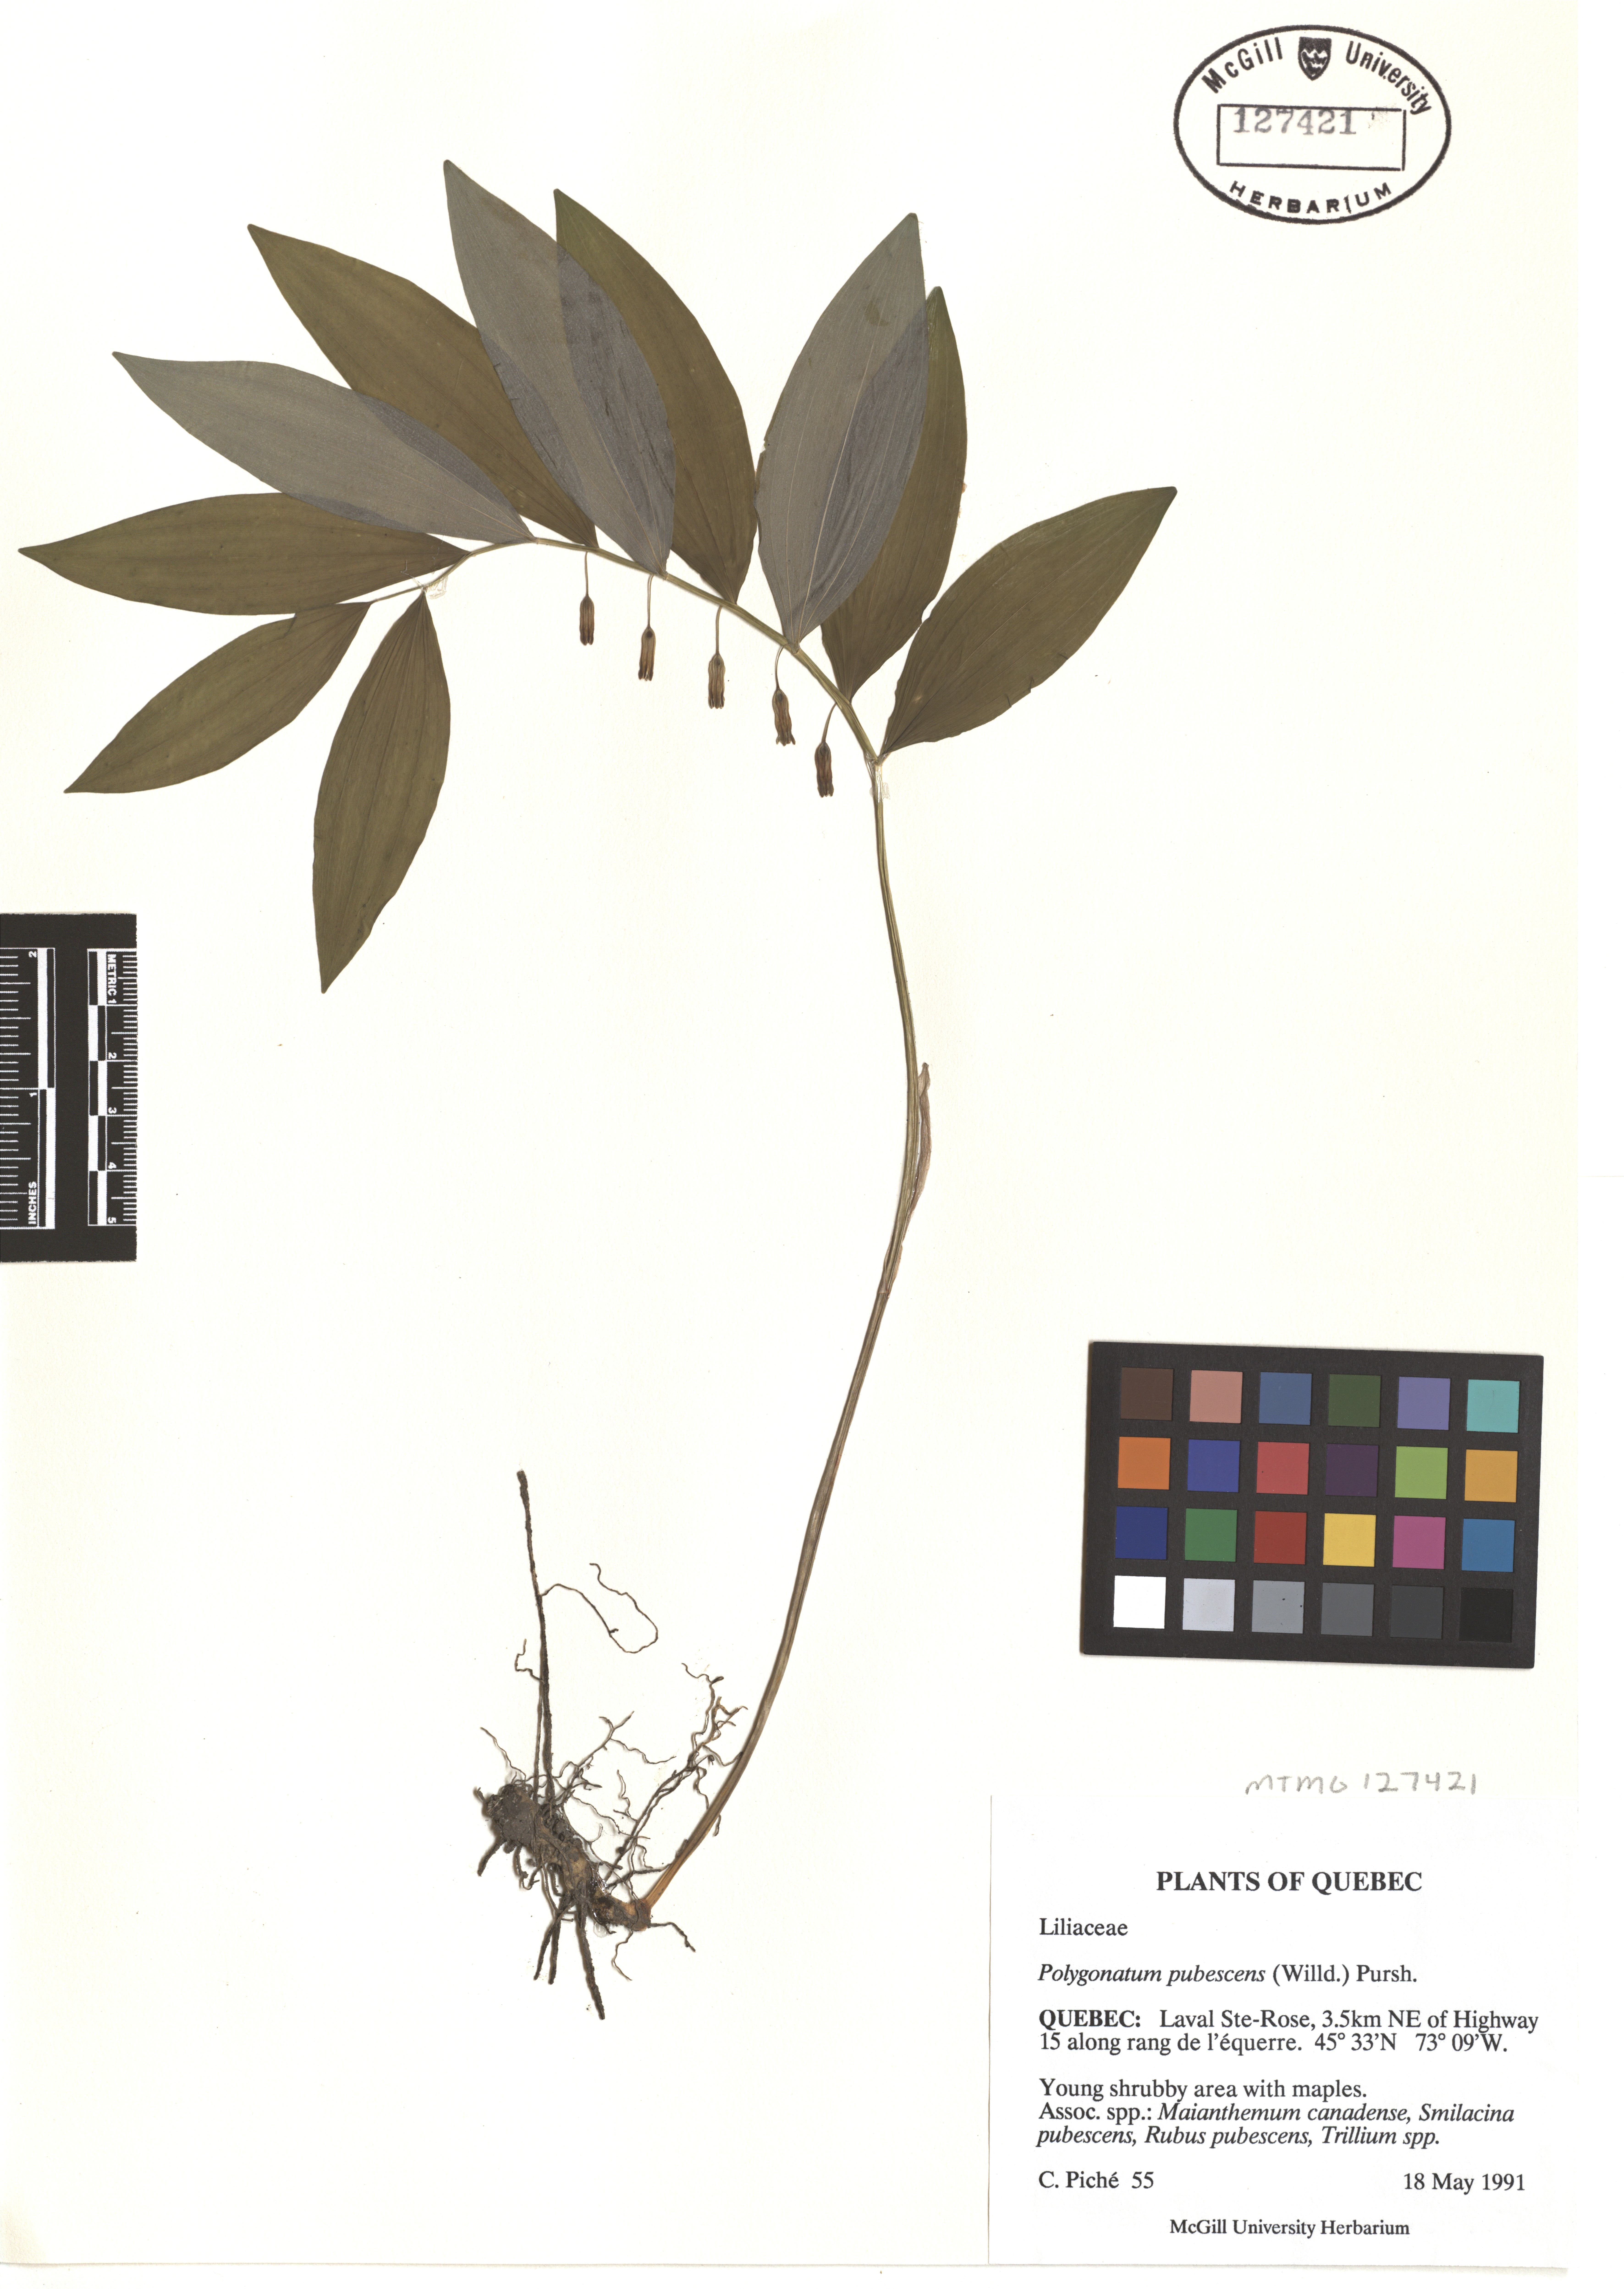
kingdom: Plantae
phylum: Tracheophyta
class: Liliopsida
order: Asparagales
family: Asparagaceae
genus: Polygonatum
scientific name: Polygonatum pubescens
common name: Downy solomon's seal
